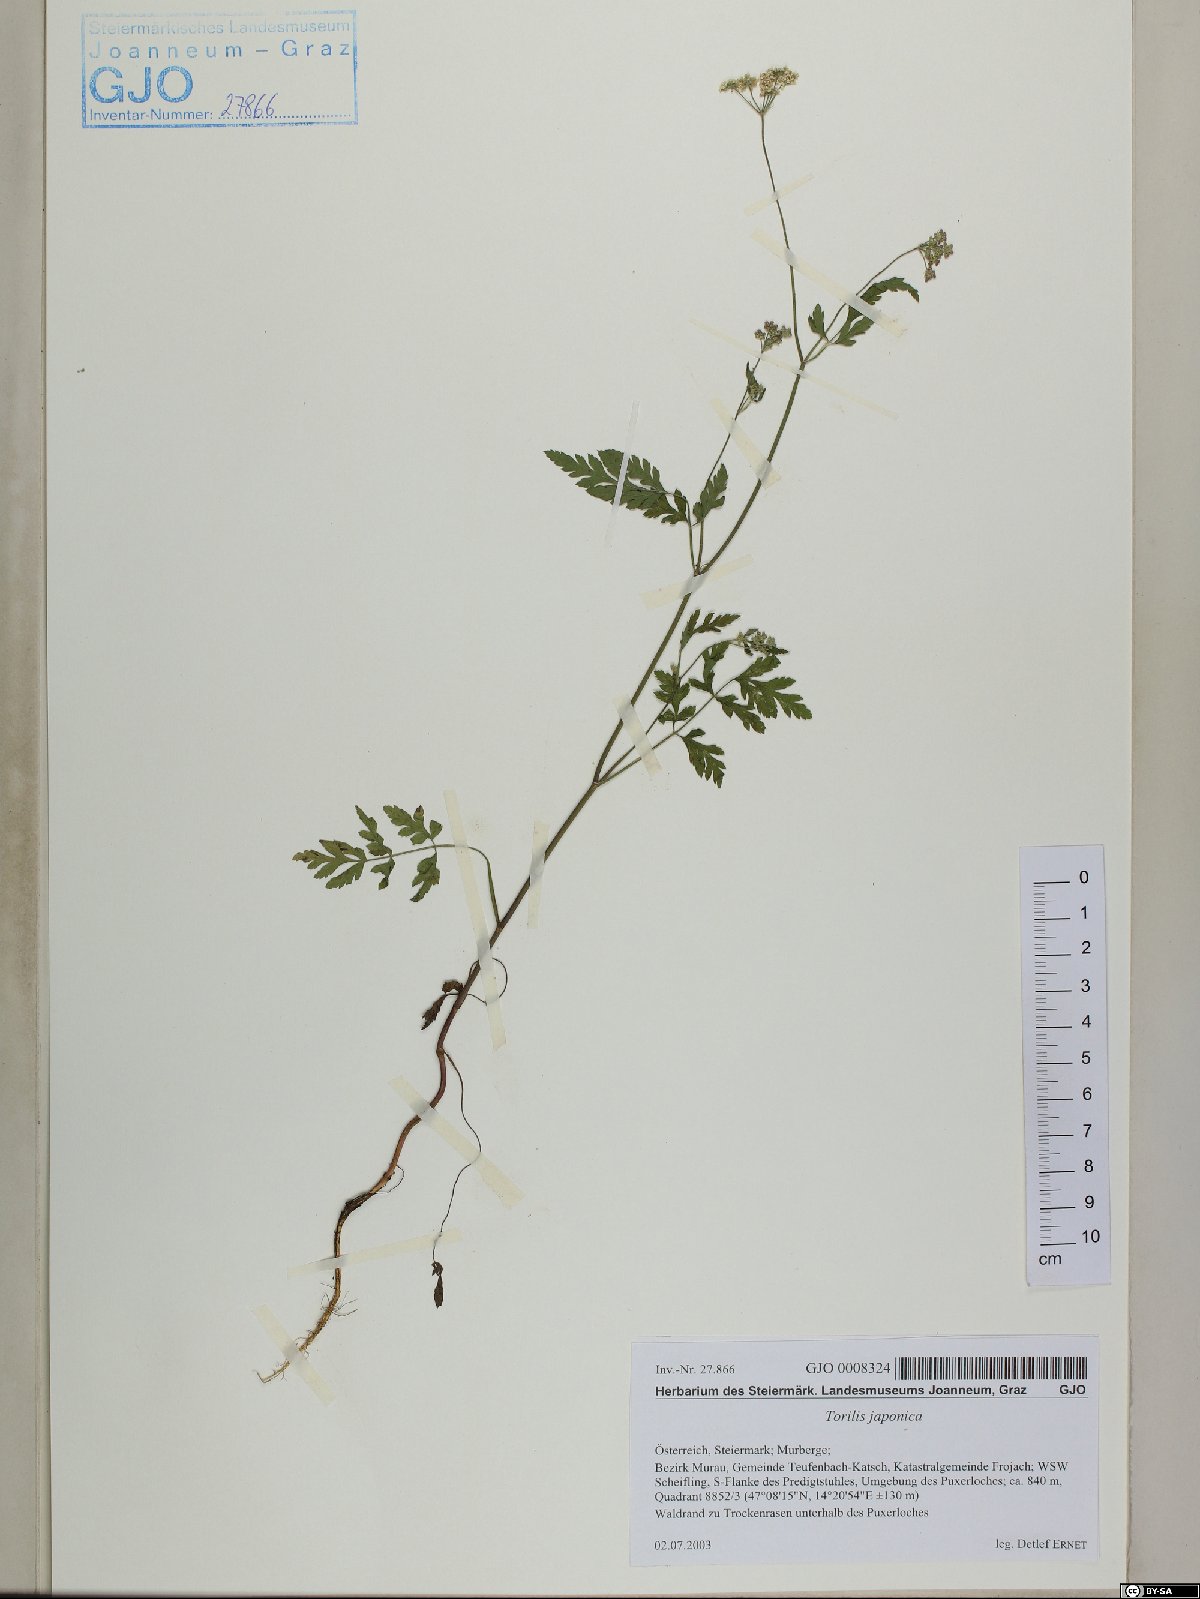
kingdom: Plantae
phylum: Tracheophyta
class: Magnoliopsida
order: Apiales
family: Apiaceae
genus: Torilis
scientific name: Torilis japonica
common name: Upright hedge-parsley
